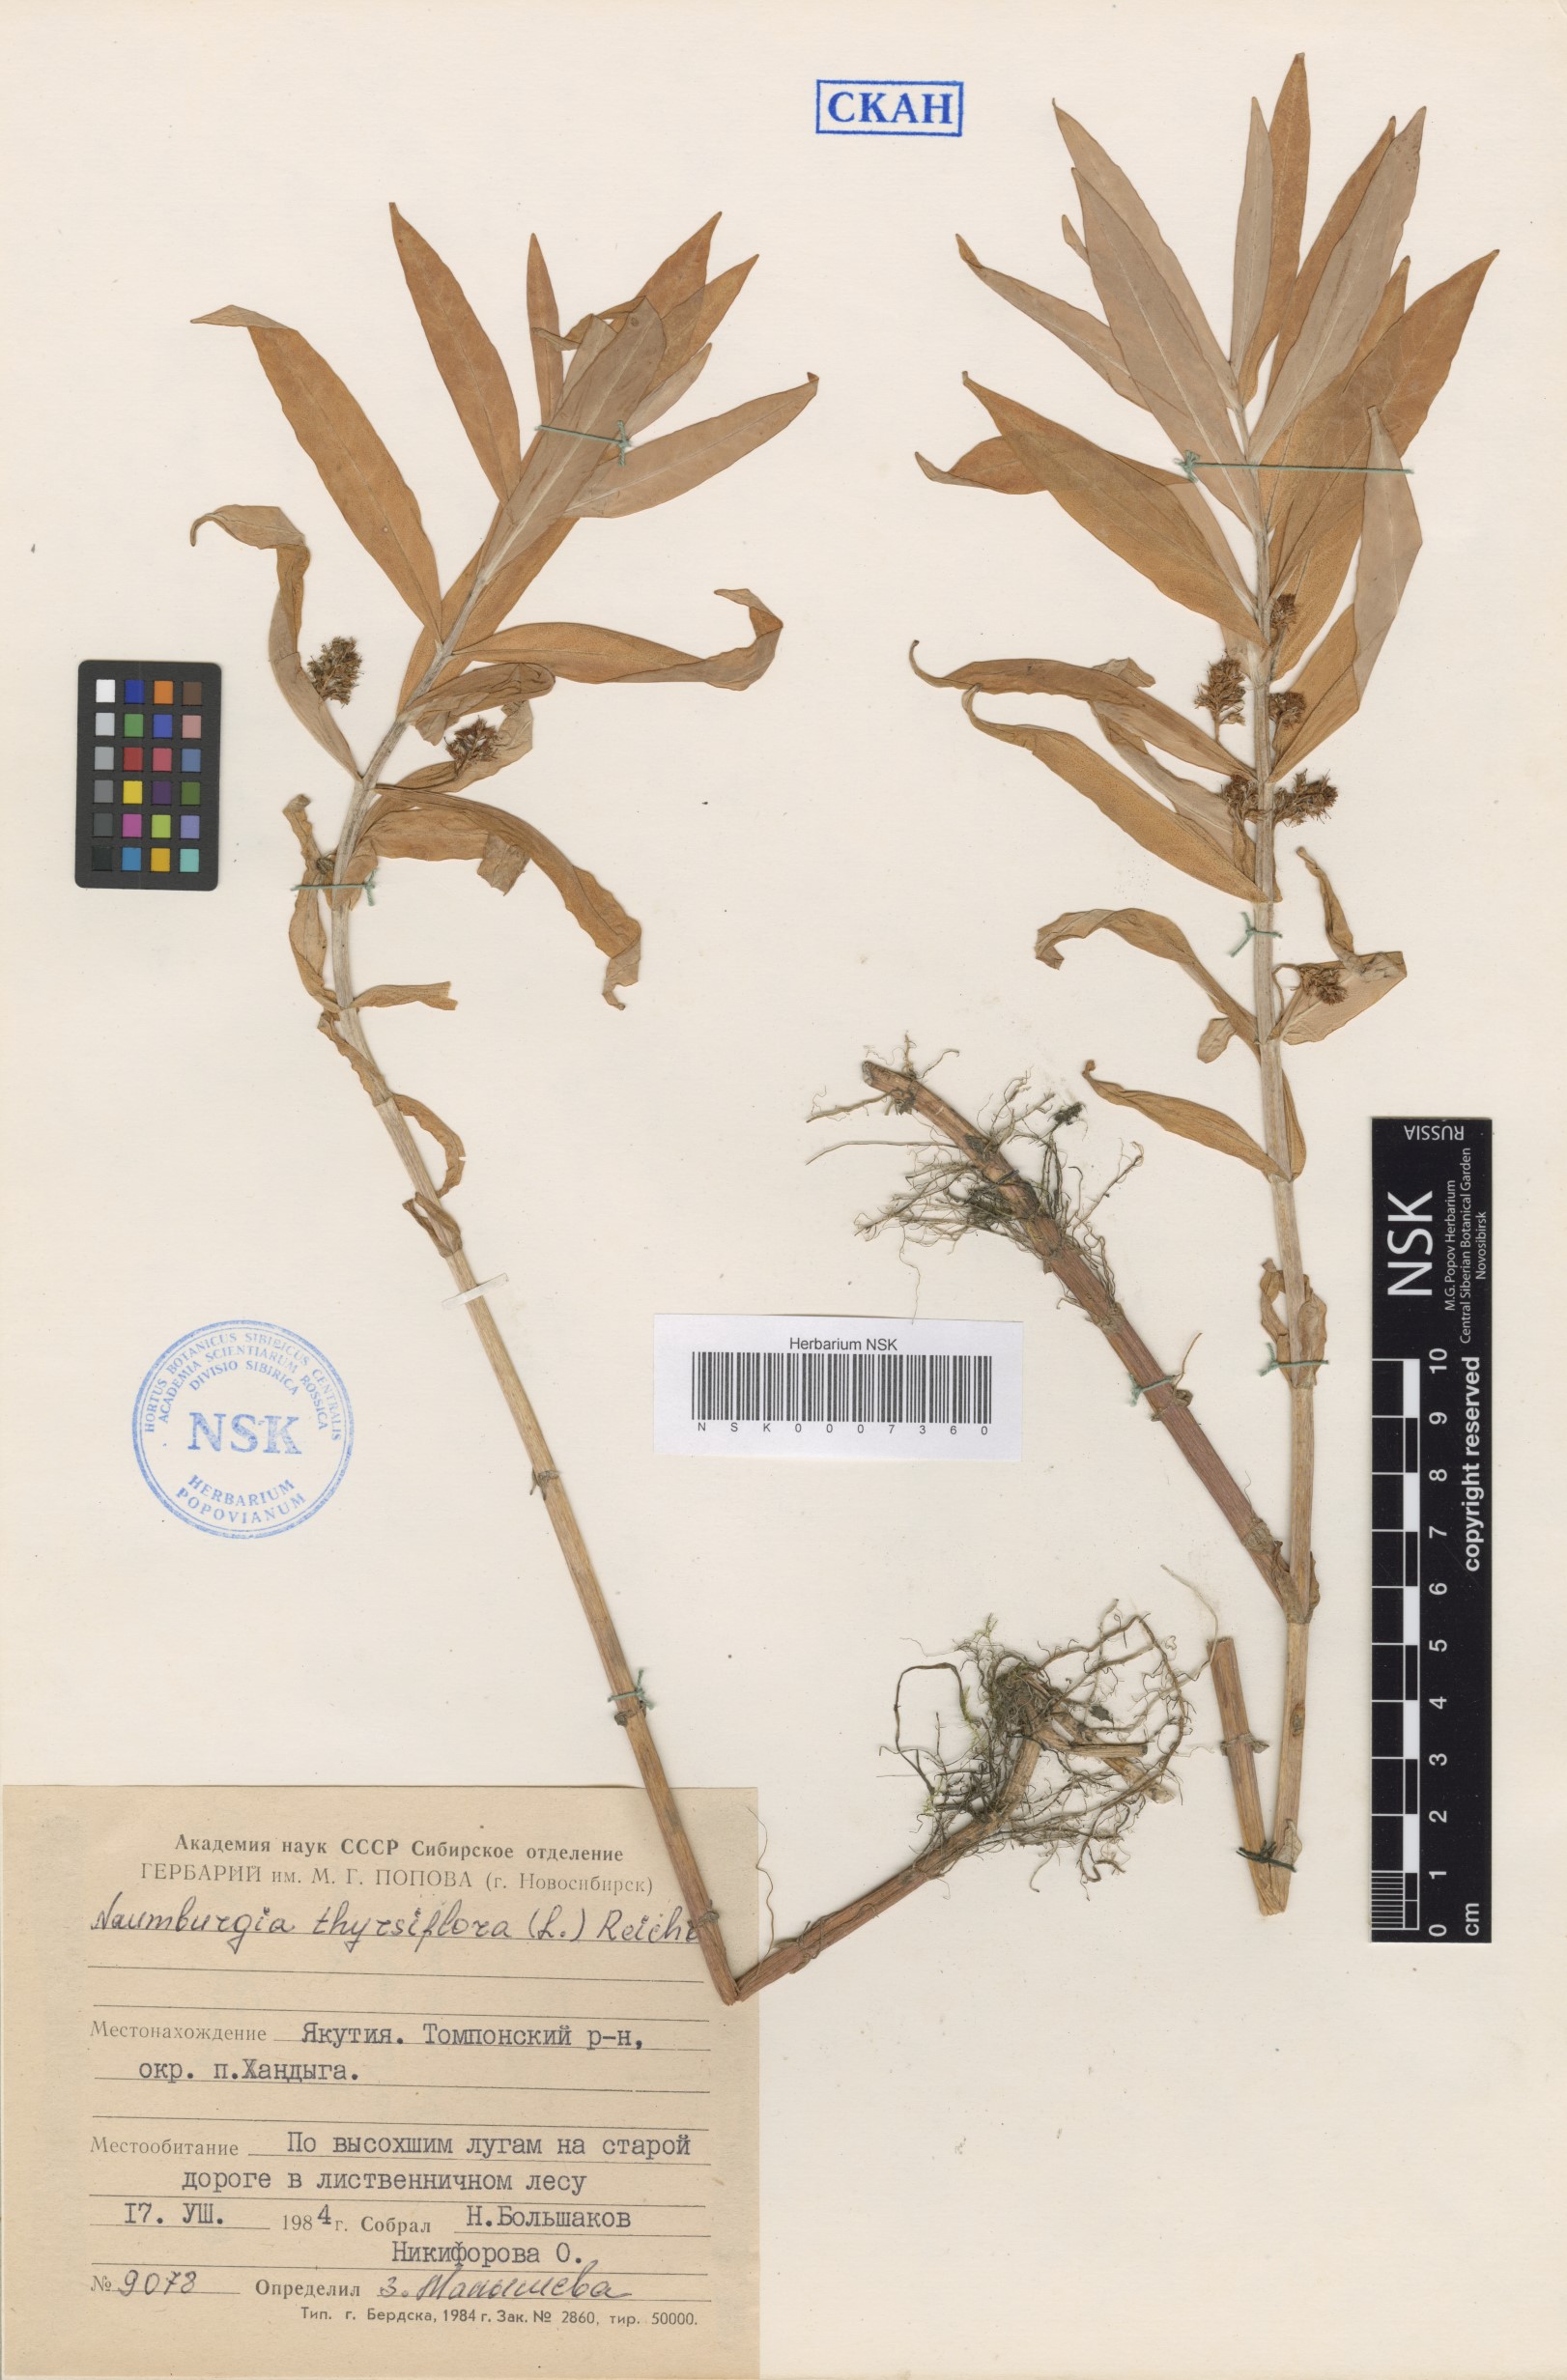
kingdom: Plantae
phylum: Tracheophyta
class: Magnoliopsida
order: Ericales
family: Primulaceae
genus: Lysimachia
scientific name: Lysimachia thyrsiflora
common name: Tufted loosestrife
